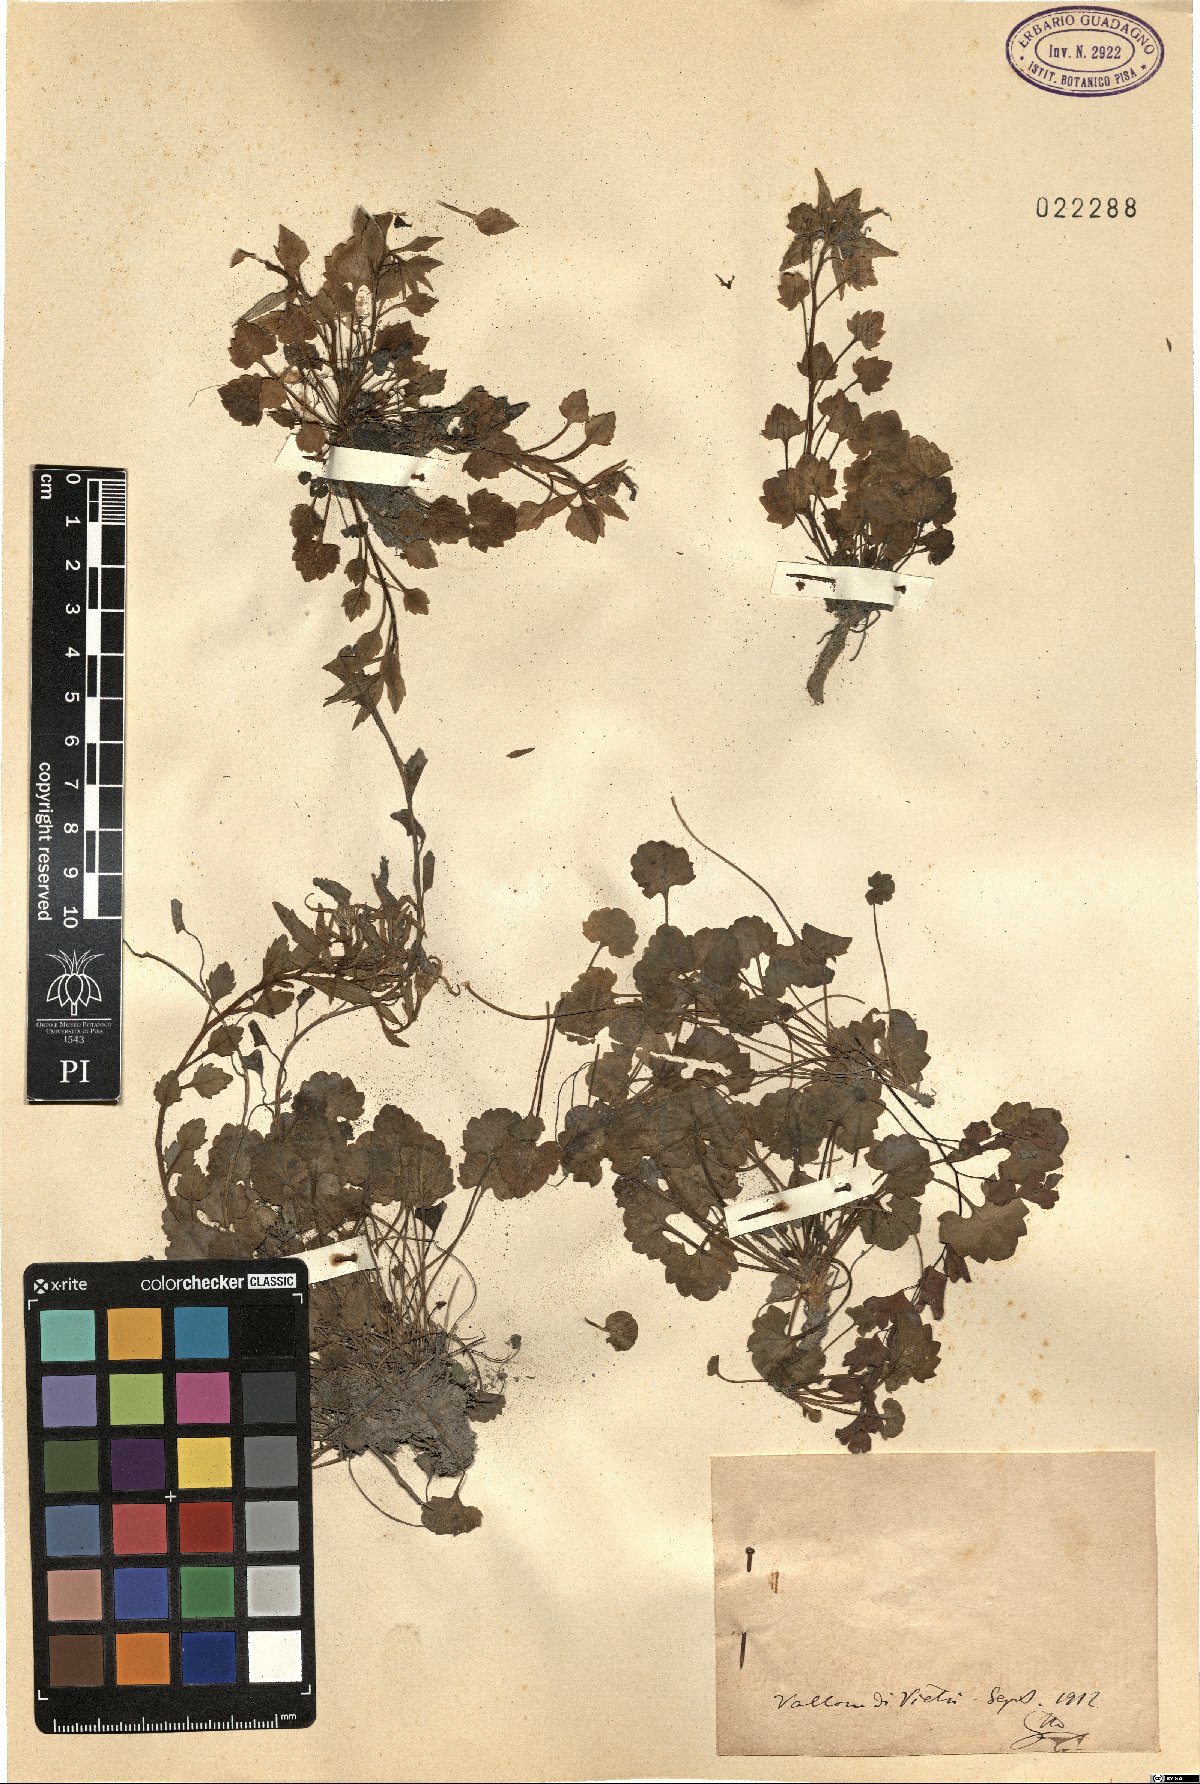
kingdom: Plantae
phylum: Tracheophyta
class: Magnoliopsida
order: Asterales
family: Campanulaceae
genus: Campanula
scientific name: Campanula
